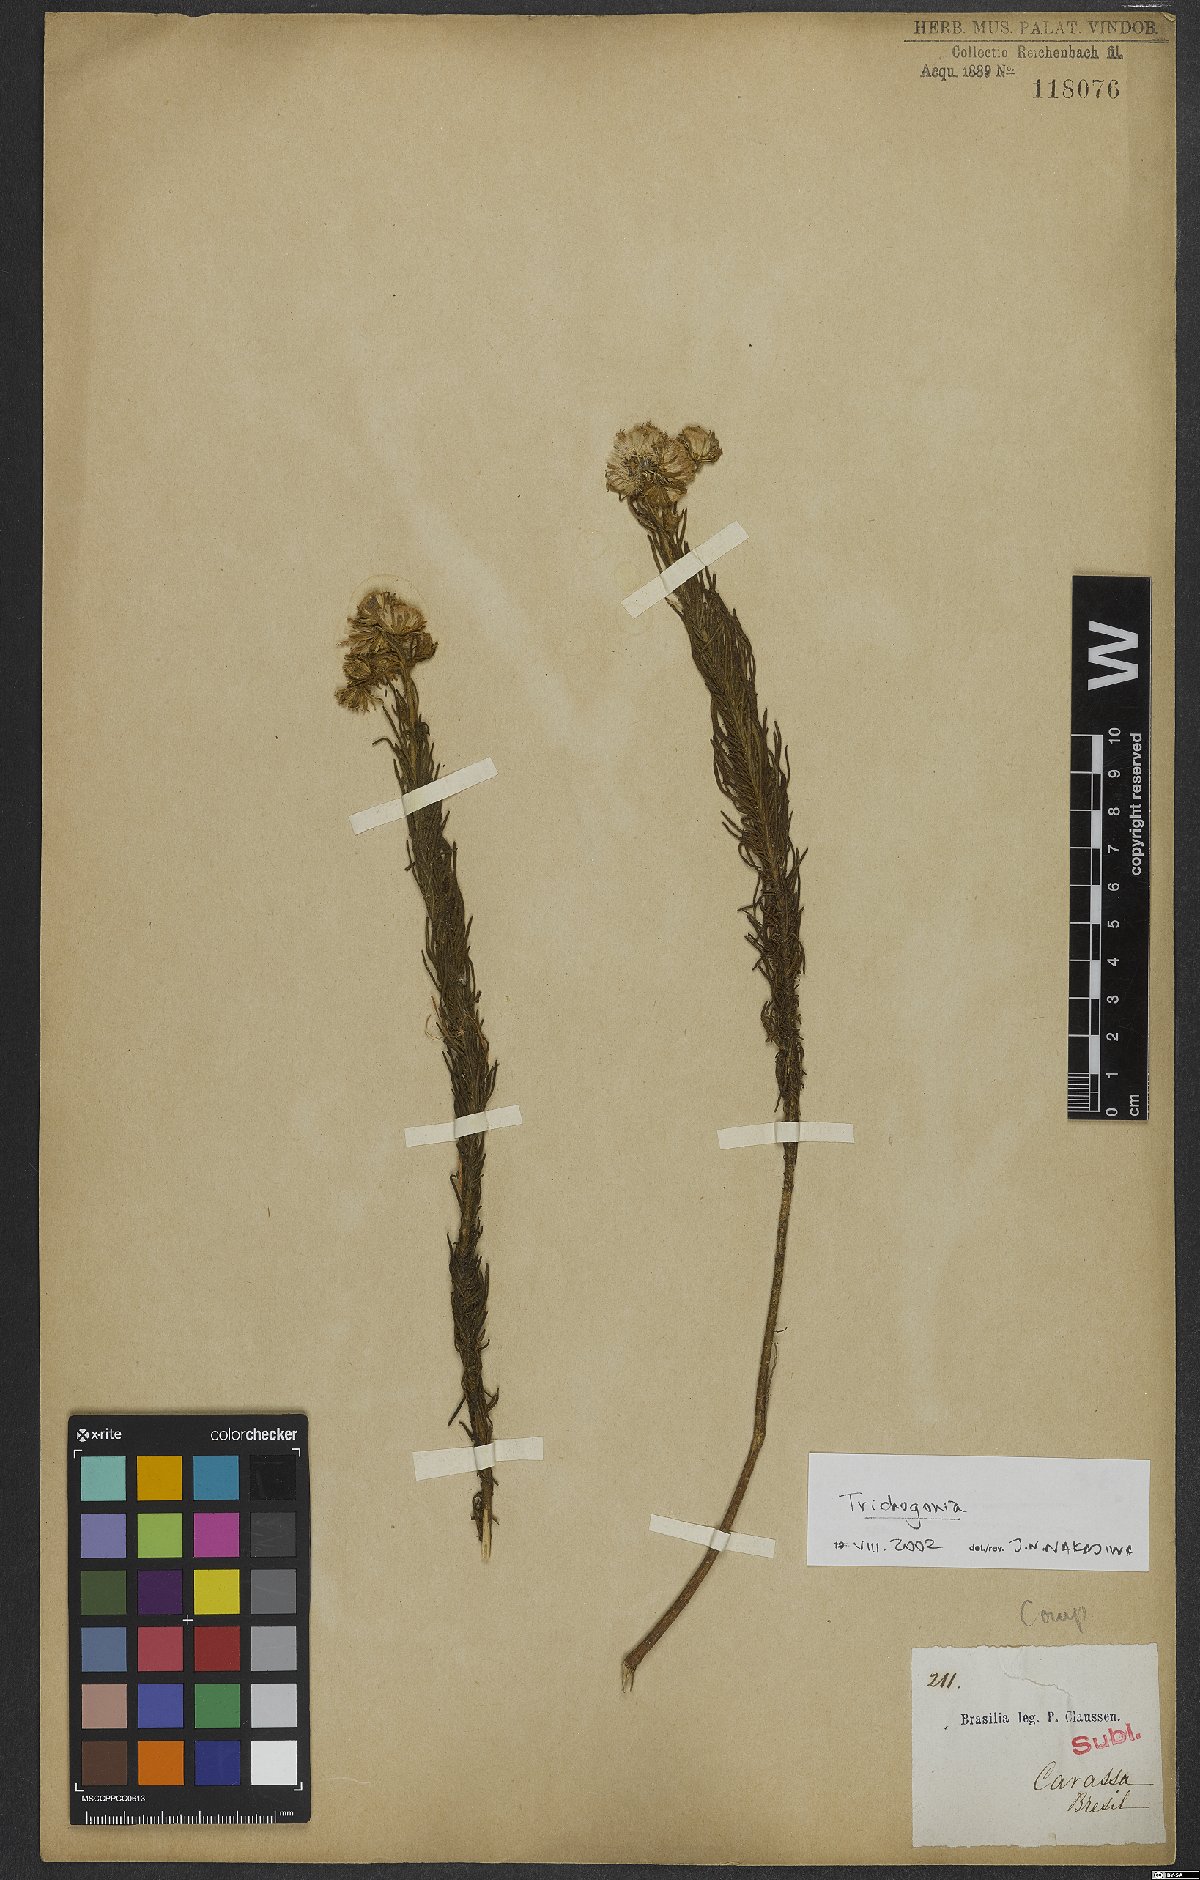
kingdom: Plantae
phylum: Tracheophyta
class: Magnoliopsida
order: Asterales
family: Asteraceae
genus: Trichogonia
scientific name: Trichogonia
